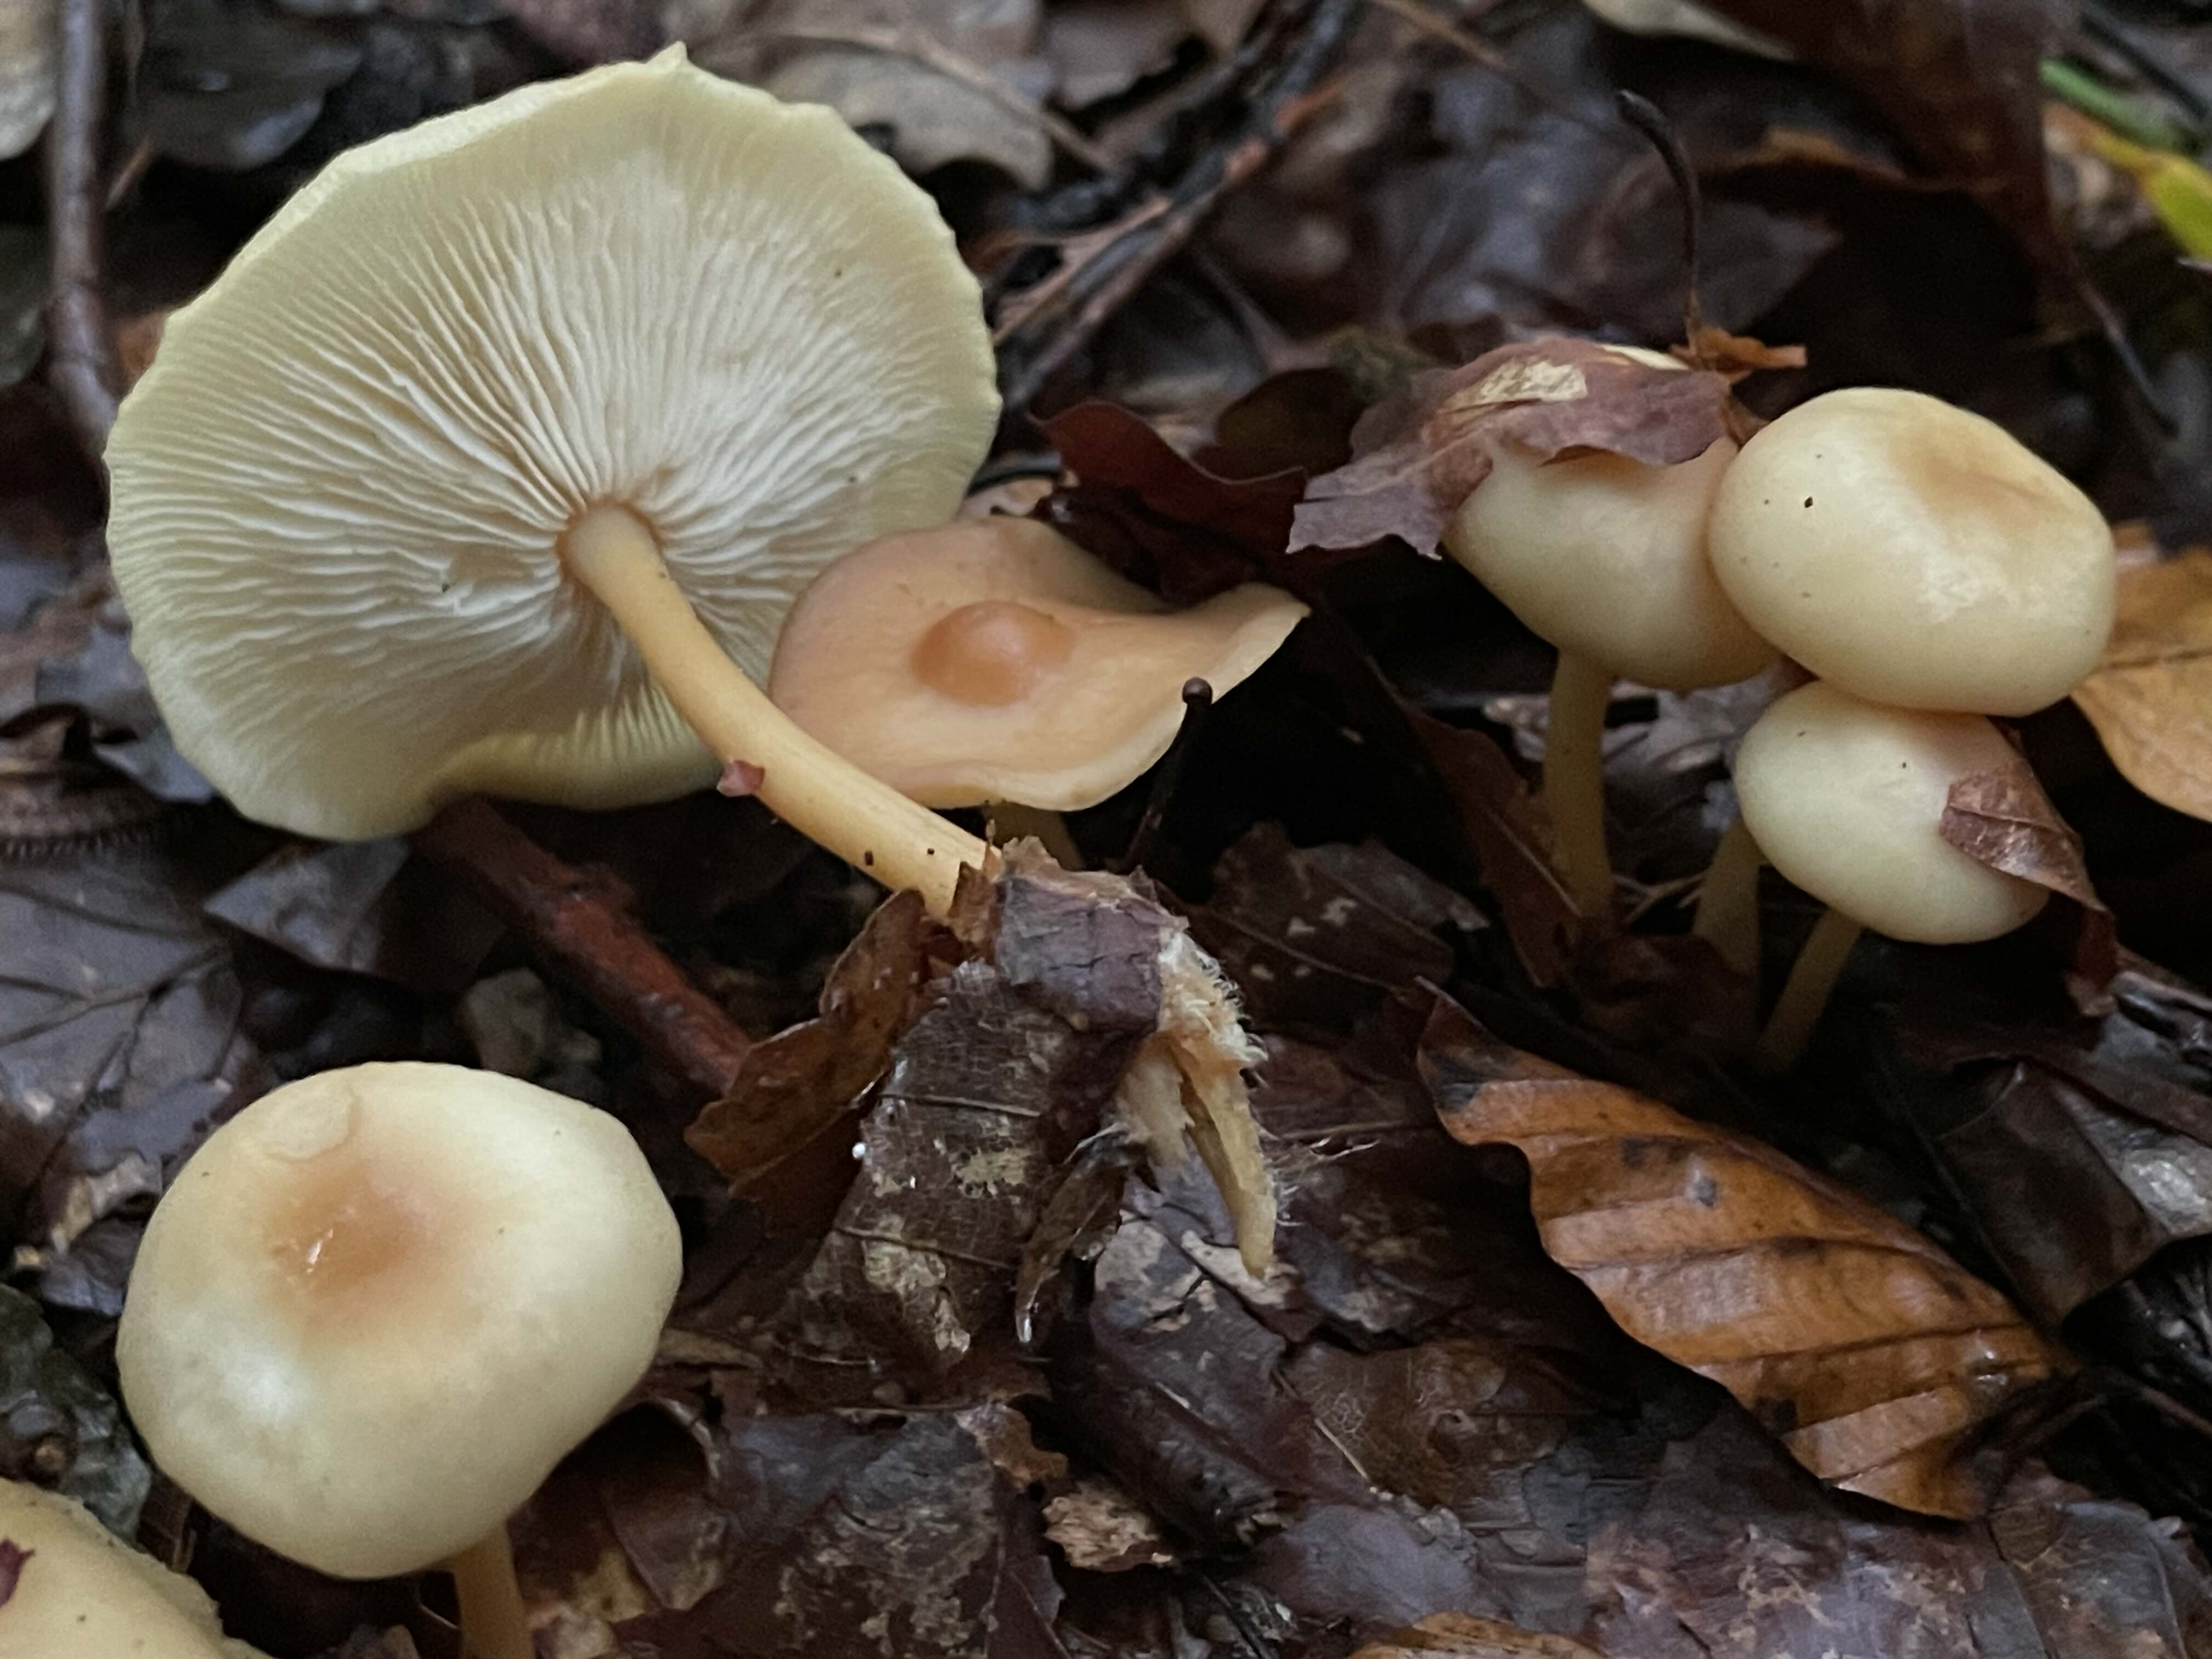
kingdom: Fungi
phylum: Basidiomycota
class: Agaricomycetes
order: Agaricales
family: Omphalotaceae
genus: Gymnopus
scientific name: Gymnopus dryophilus
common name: løv-fladhat
